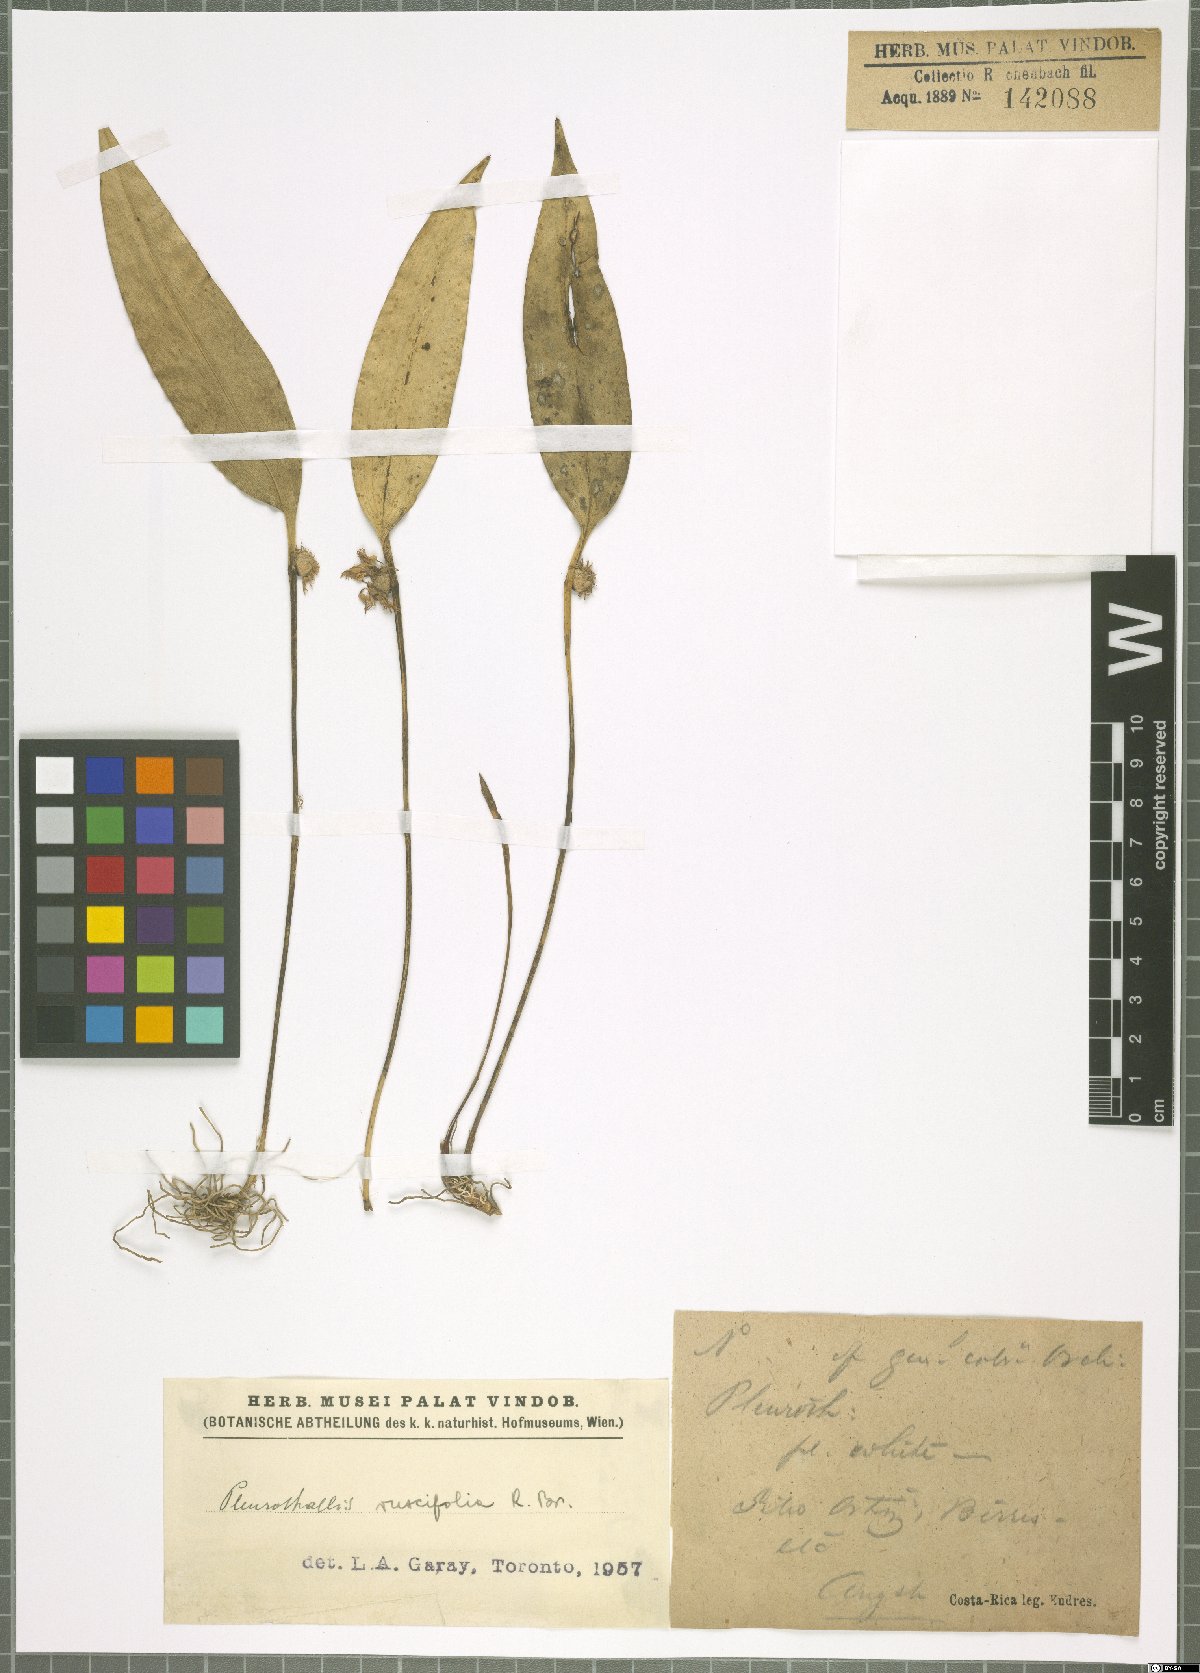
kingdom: Plantae
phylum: Tracheophyta
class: Liliopsida
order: Asparagales
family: Orchidaceae
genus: Pleurothallis
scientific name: Pleurothallis ruscifolia
